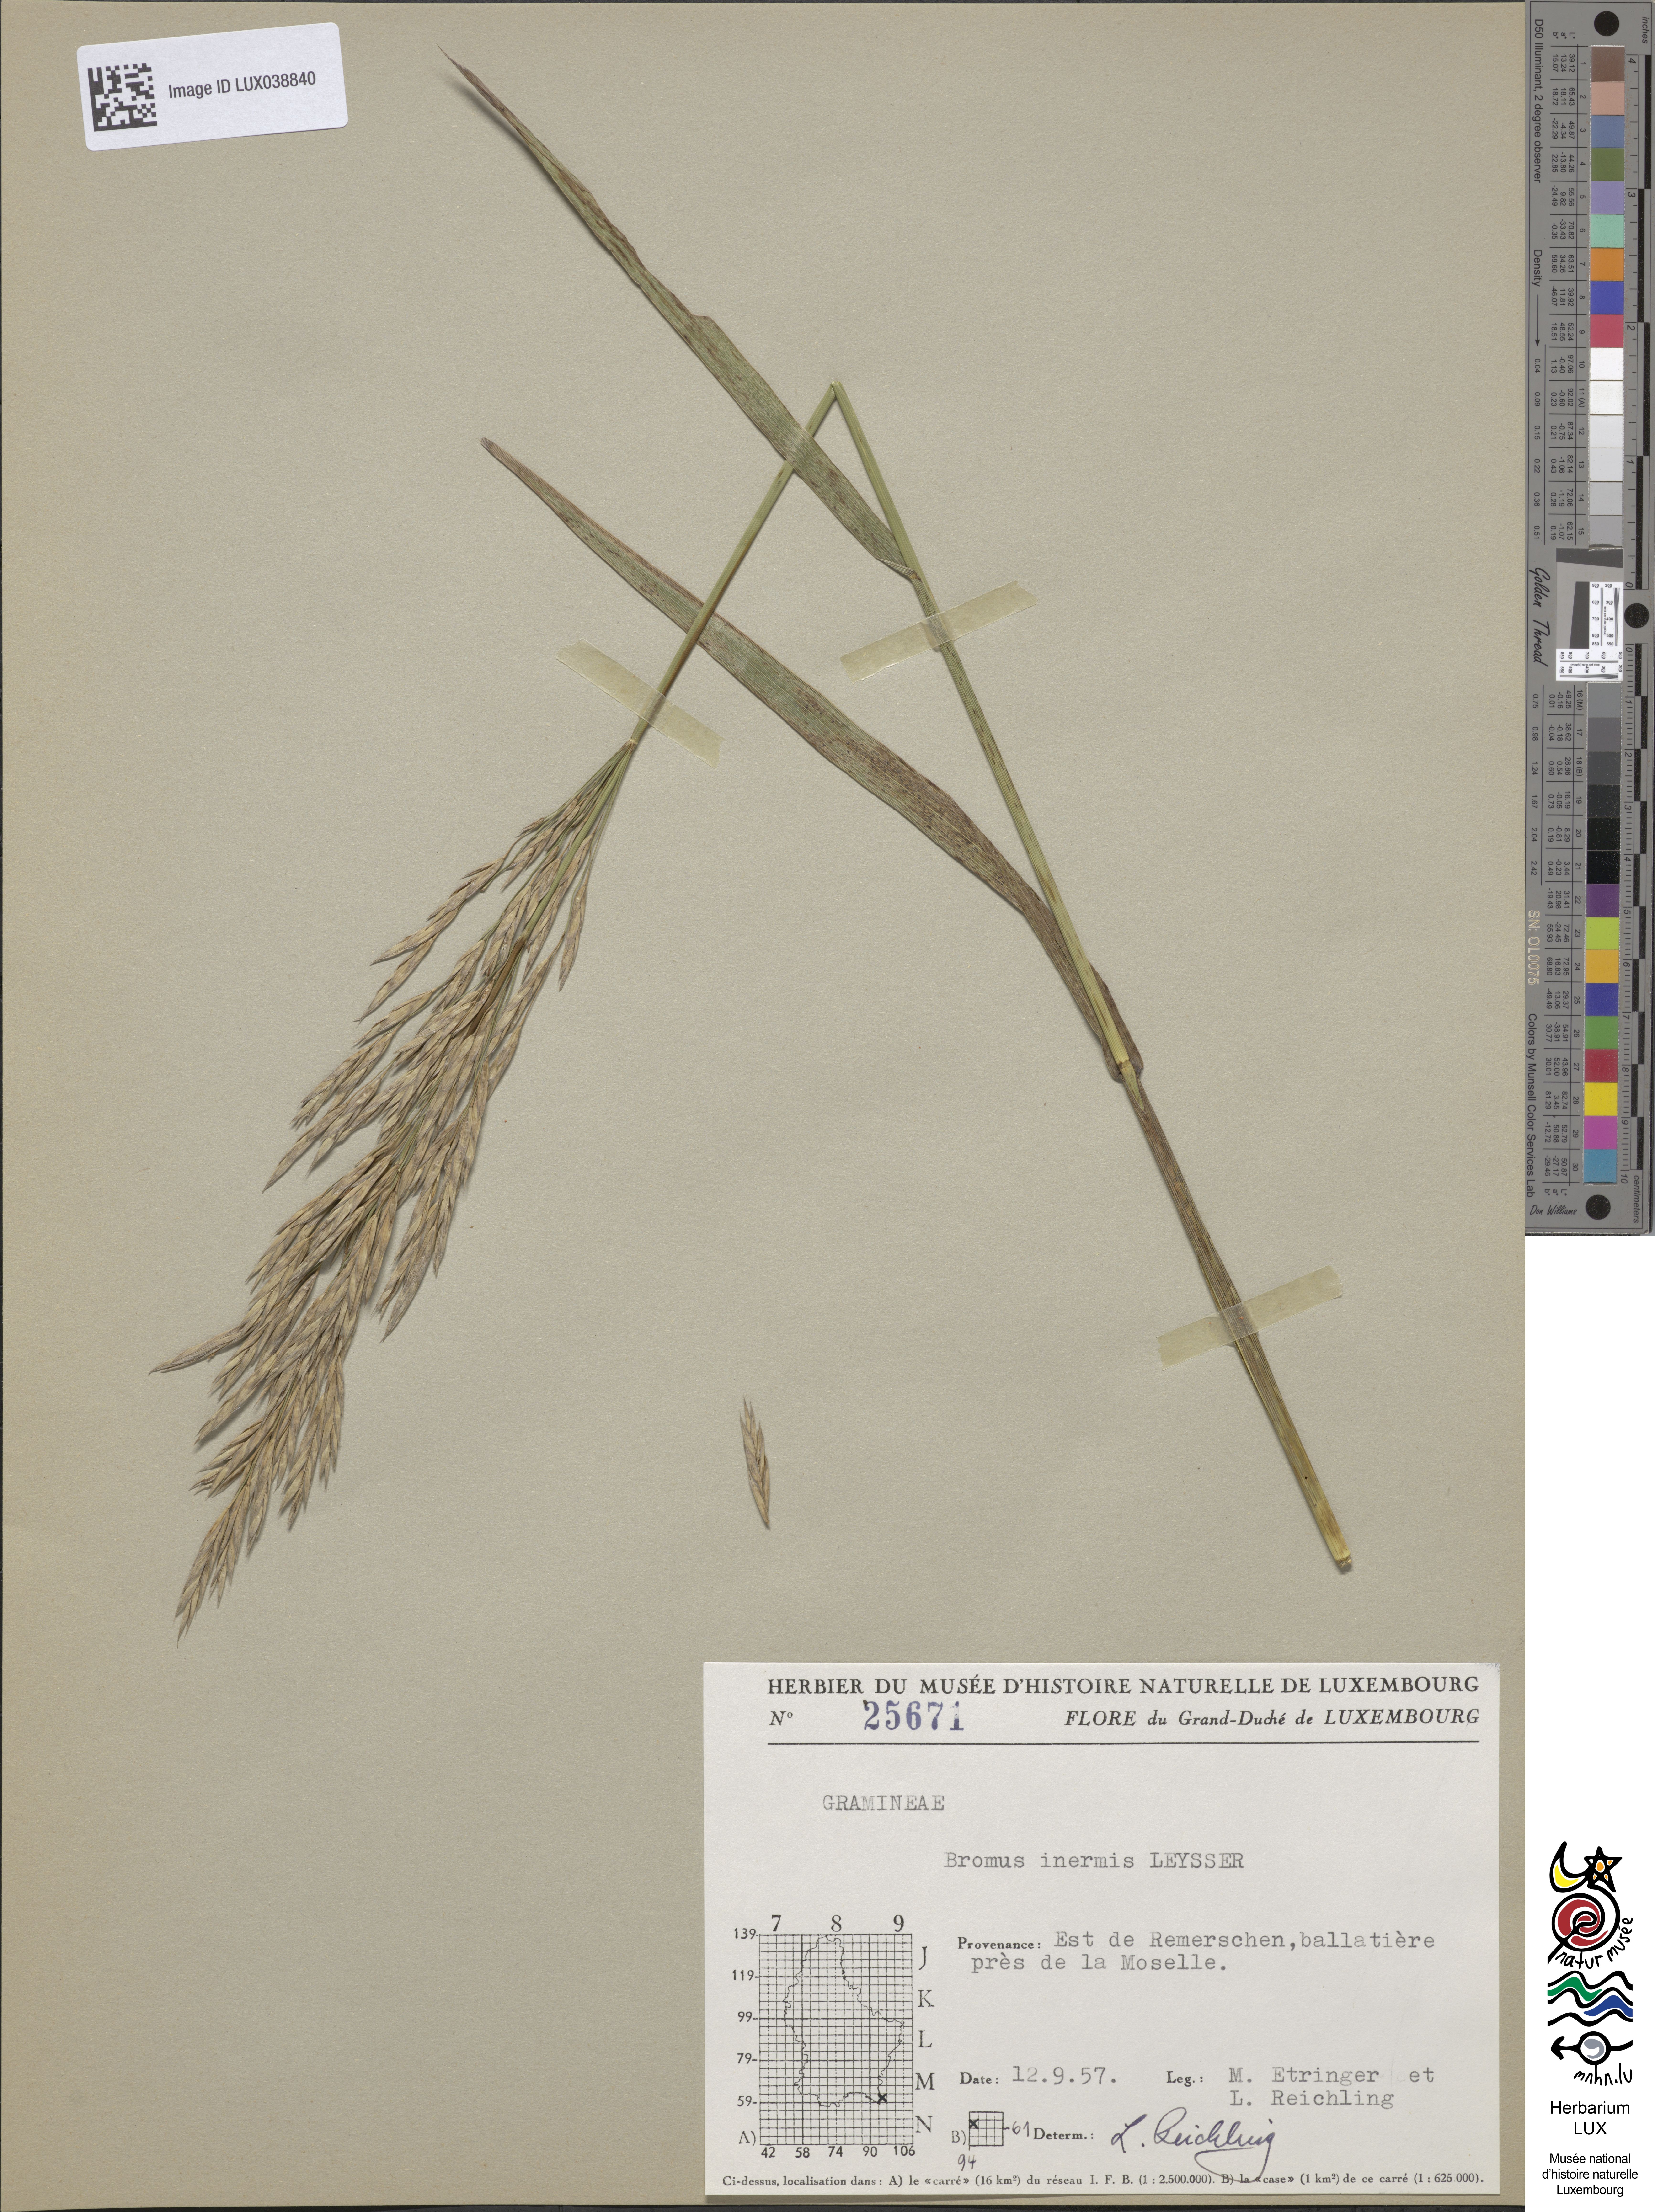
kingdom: Plantae
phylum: Tracheophyta
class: Liliopsida
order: Poales
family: Poaceae
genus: Bromus
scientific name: Bromus inermis
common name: Smooth brome
